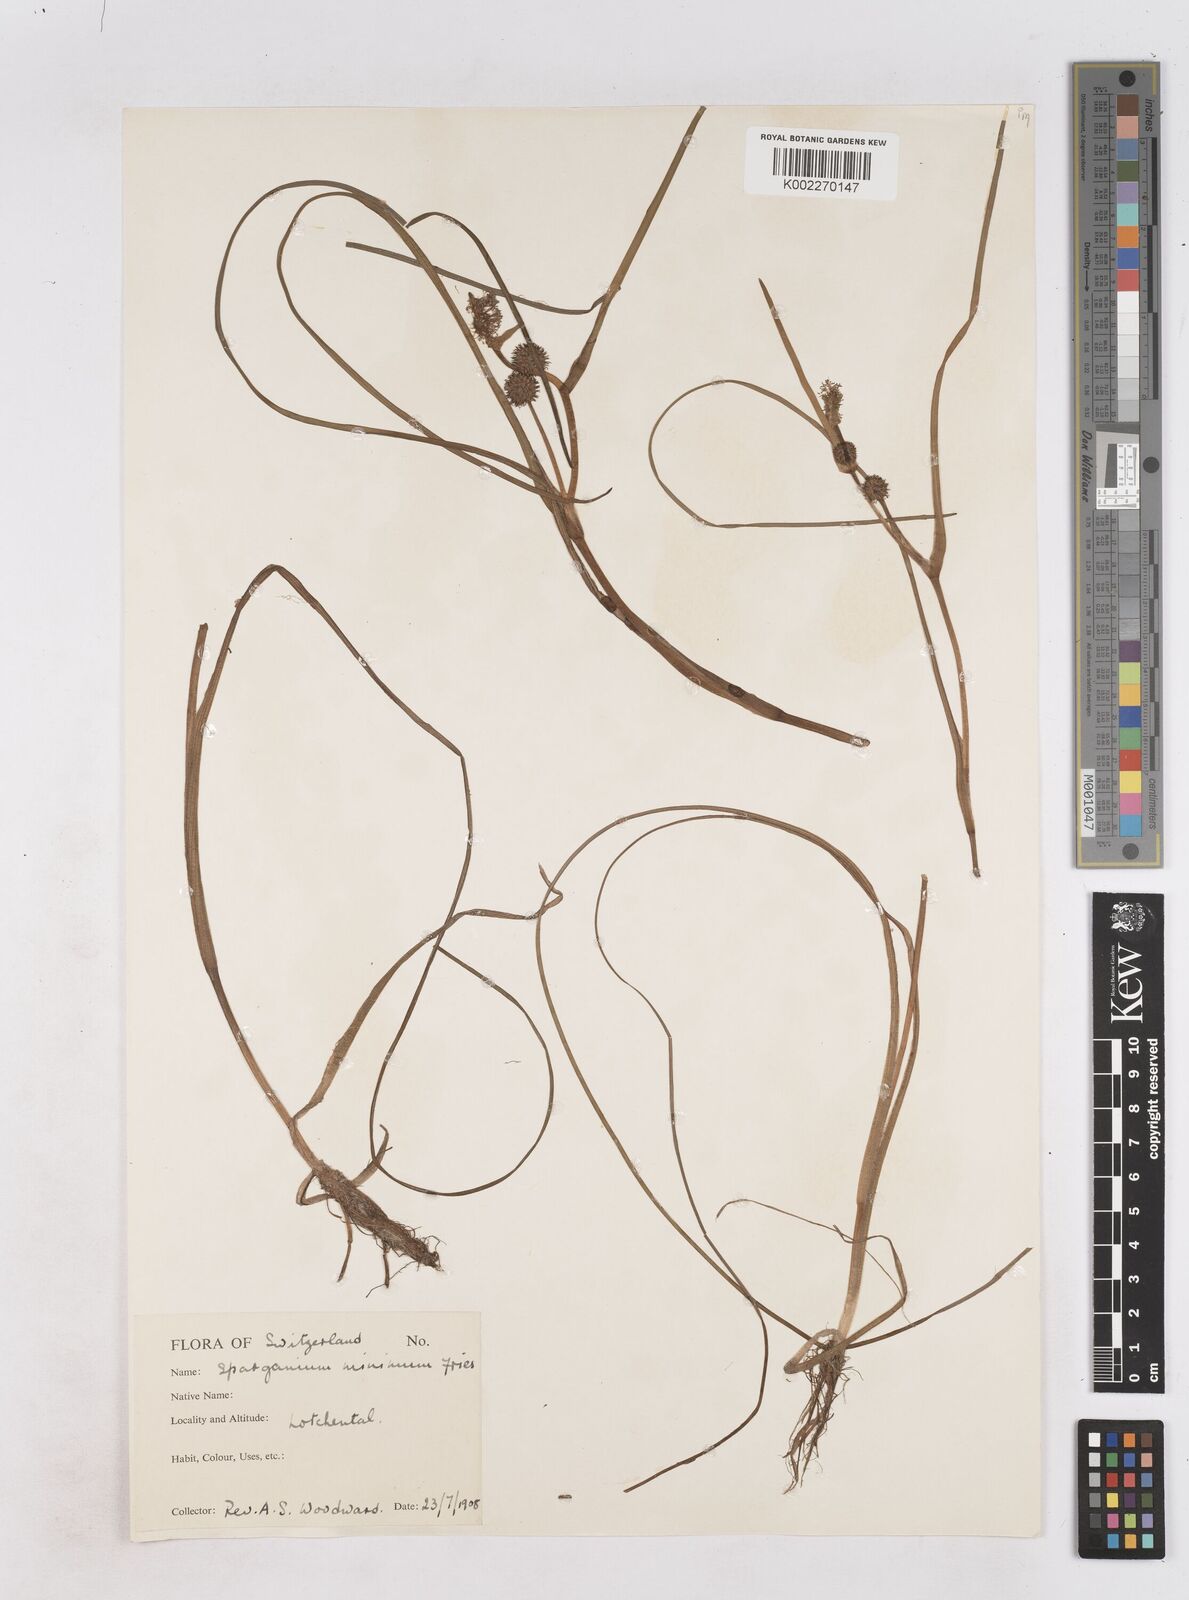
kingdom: Plantae
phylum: Tracheophyta
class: Liliopsida
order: Poales
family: Typhaceae
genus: Sparganium
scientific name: Sparganium natans
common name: Least bur-reed
